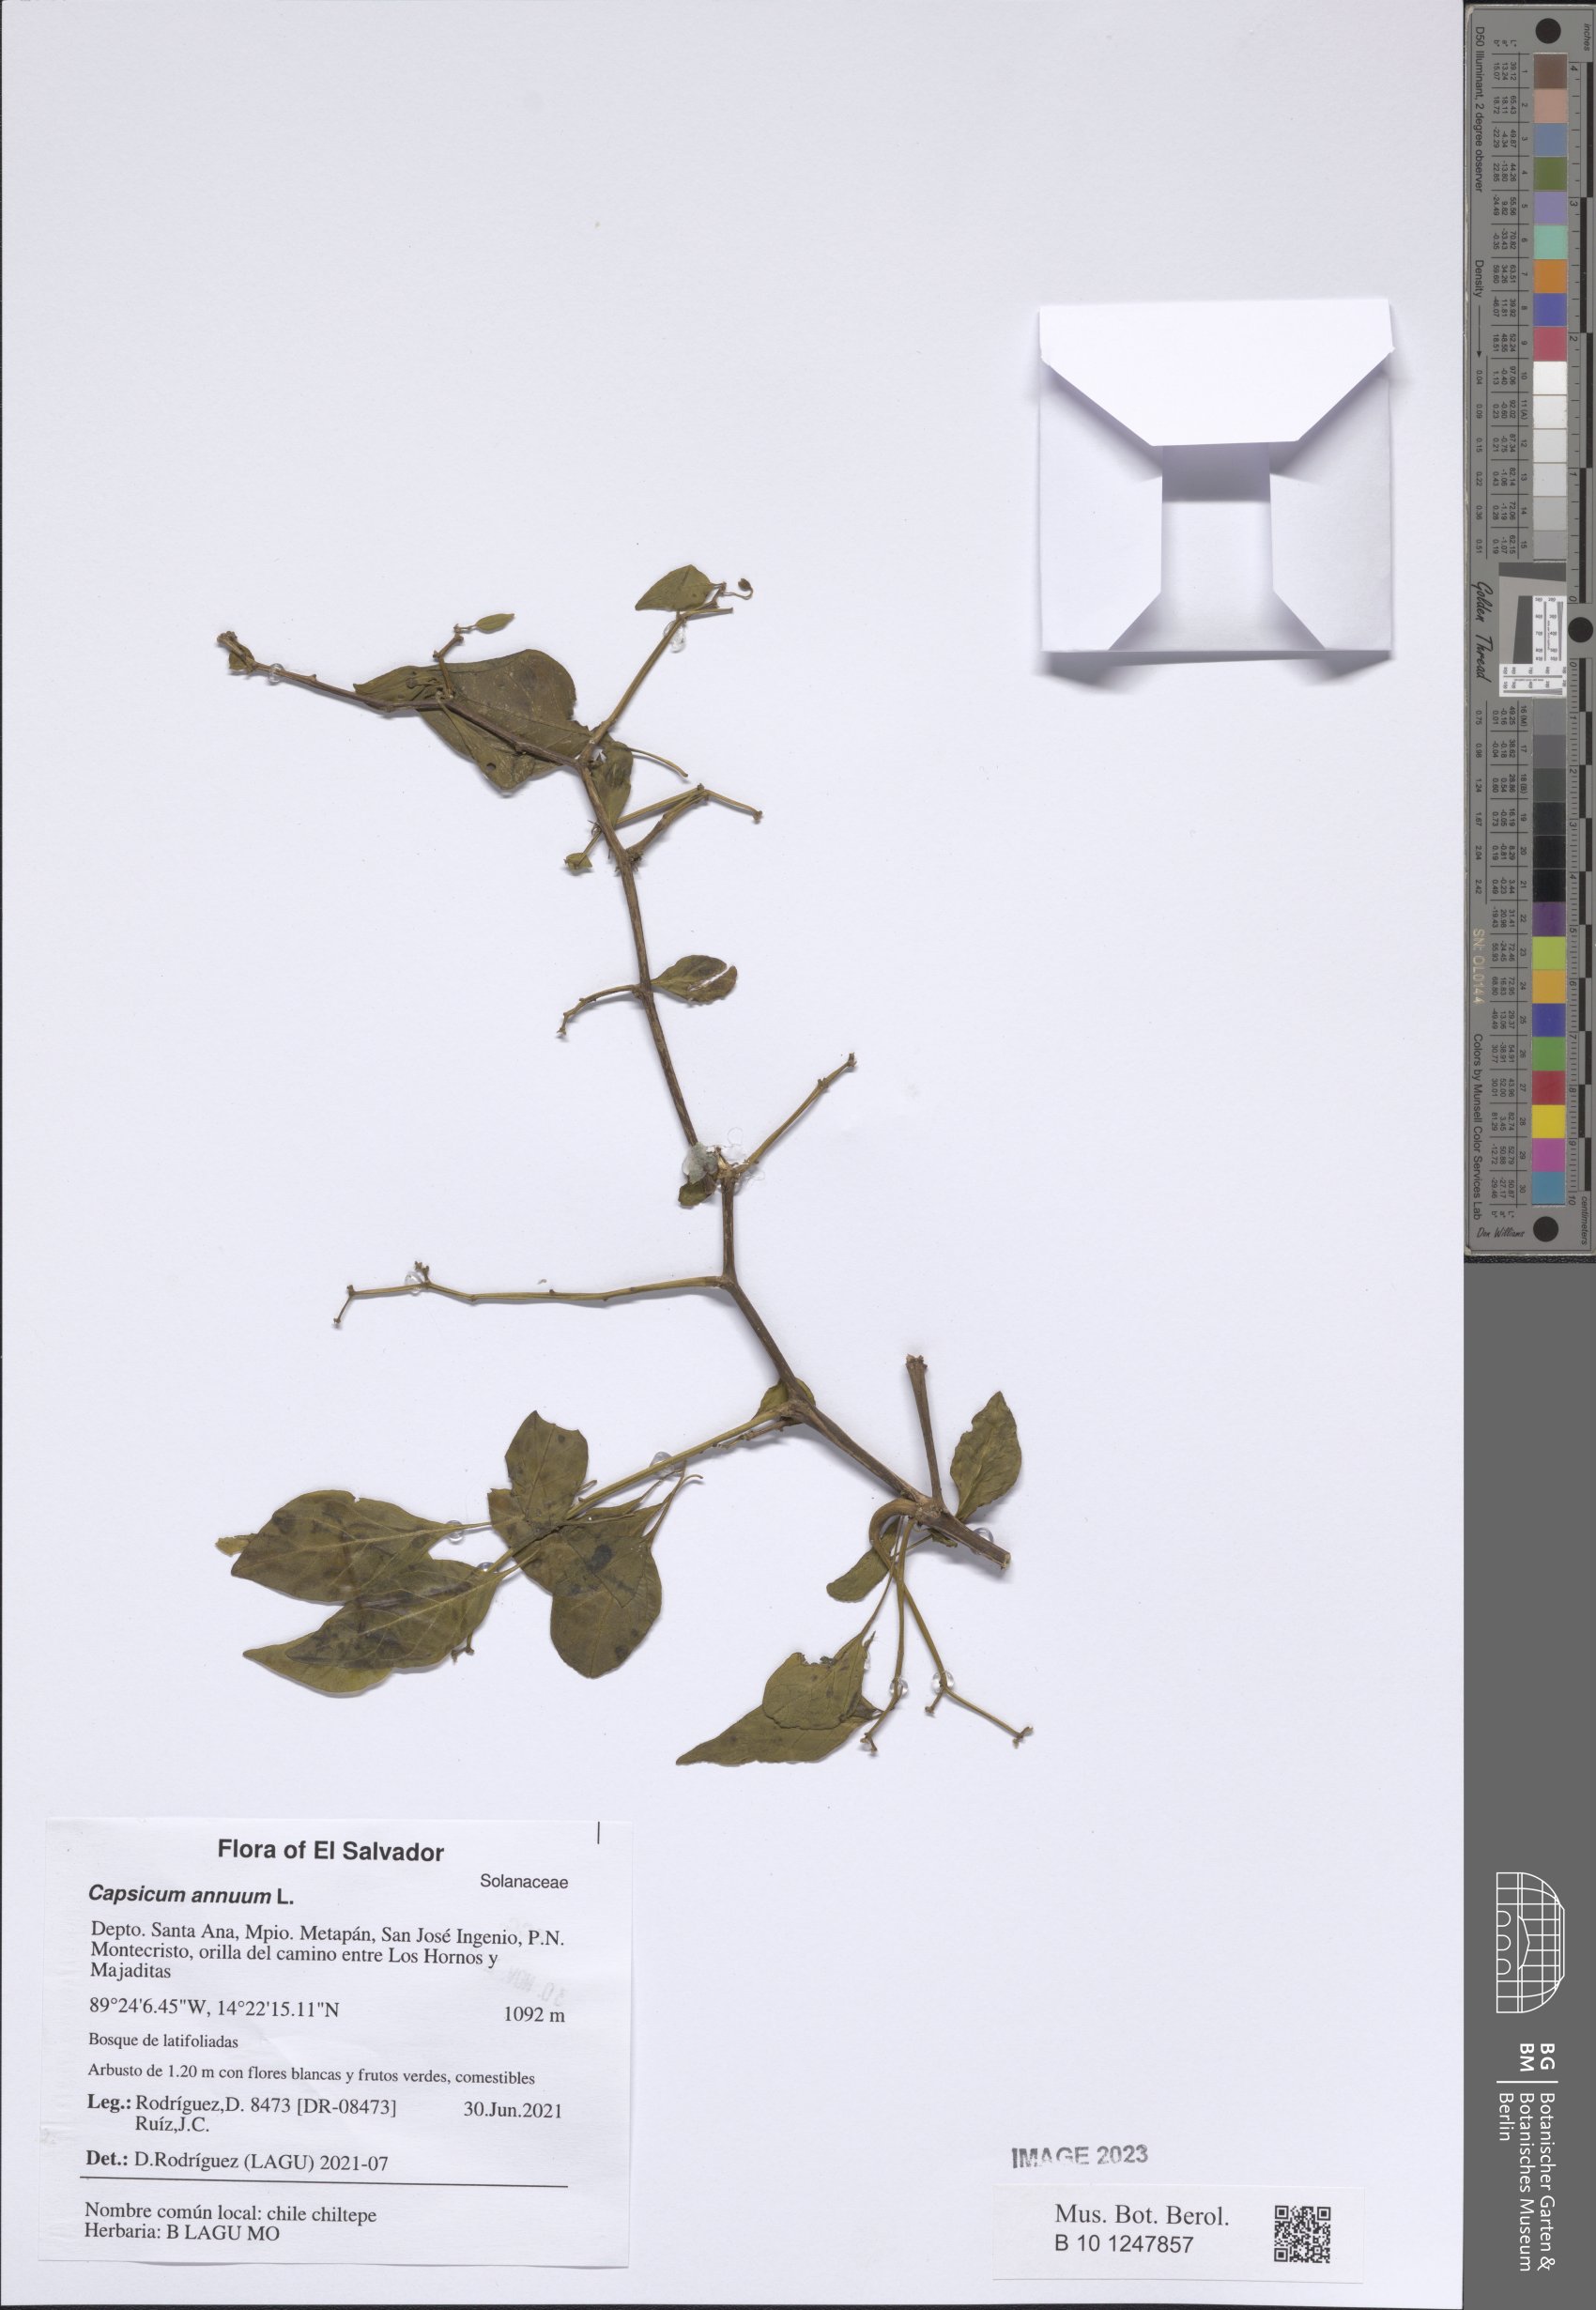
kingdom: Plantae
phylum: Tracheophyta
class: Magnoliopsida
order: Solanales
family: Solanaceae
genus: Capsicum
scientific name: Capsicum annuum
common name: Sweet pepper
